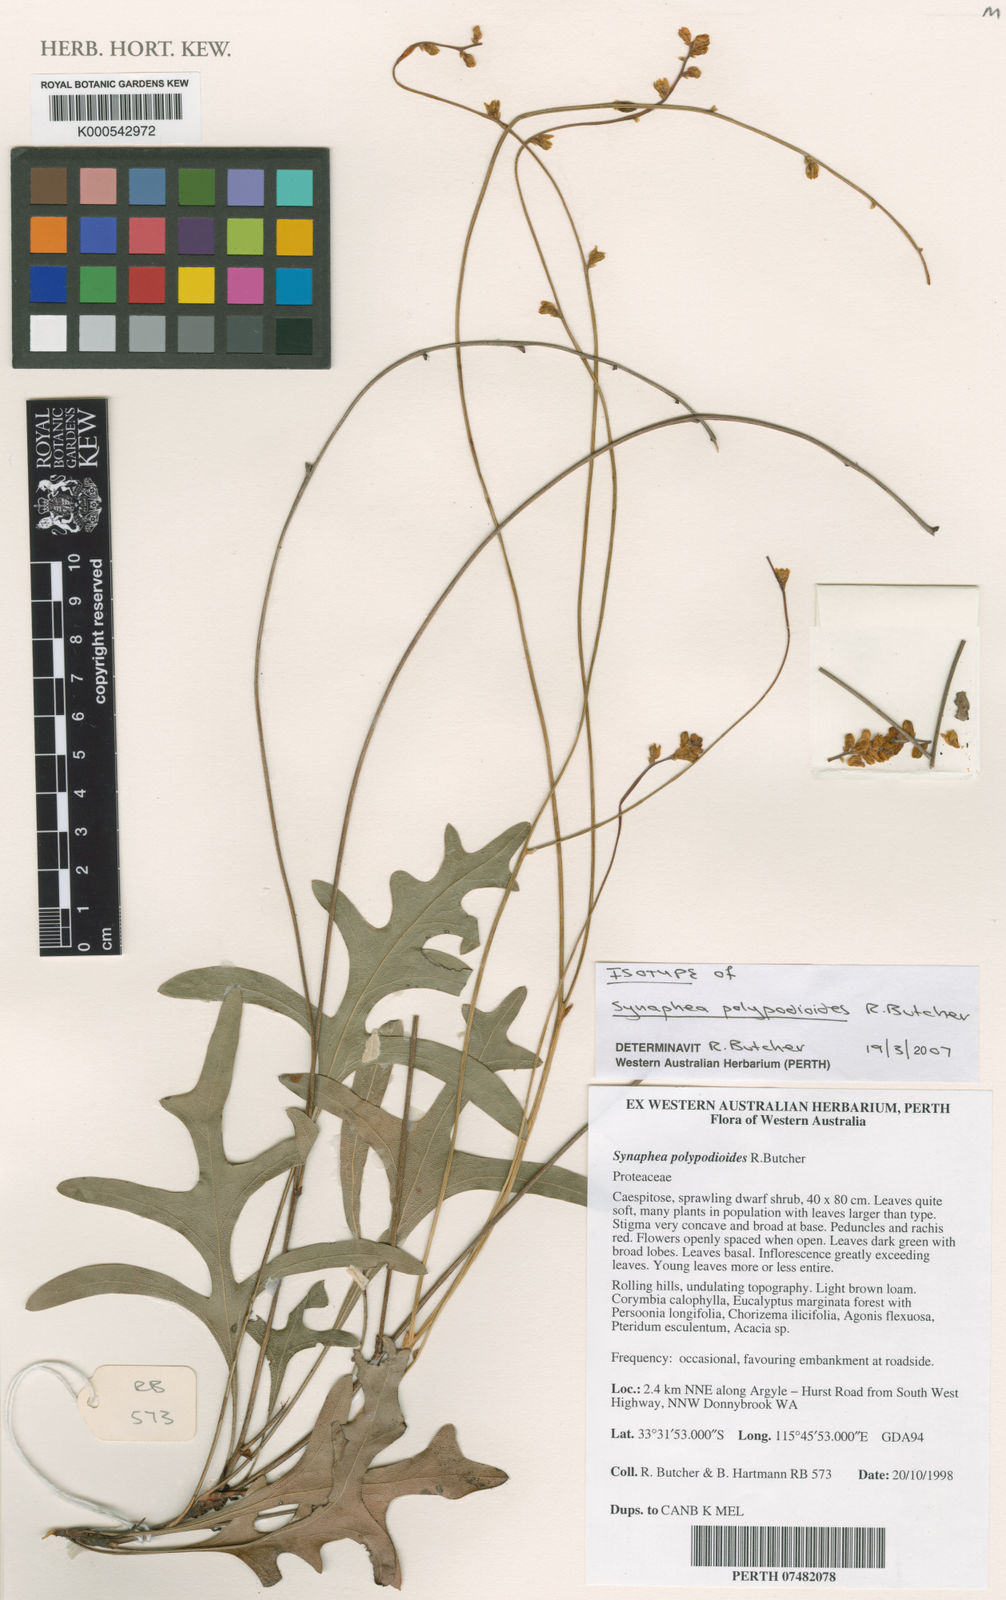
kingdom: Plantae
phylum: Tracheophyta
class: Magnoliopsida
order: Proteales
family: Proteaceae
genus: Synaphea
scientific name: Synaphea polypodioides
